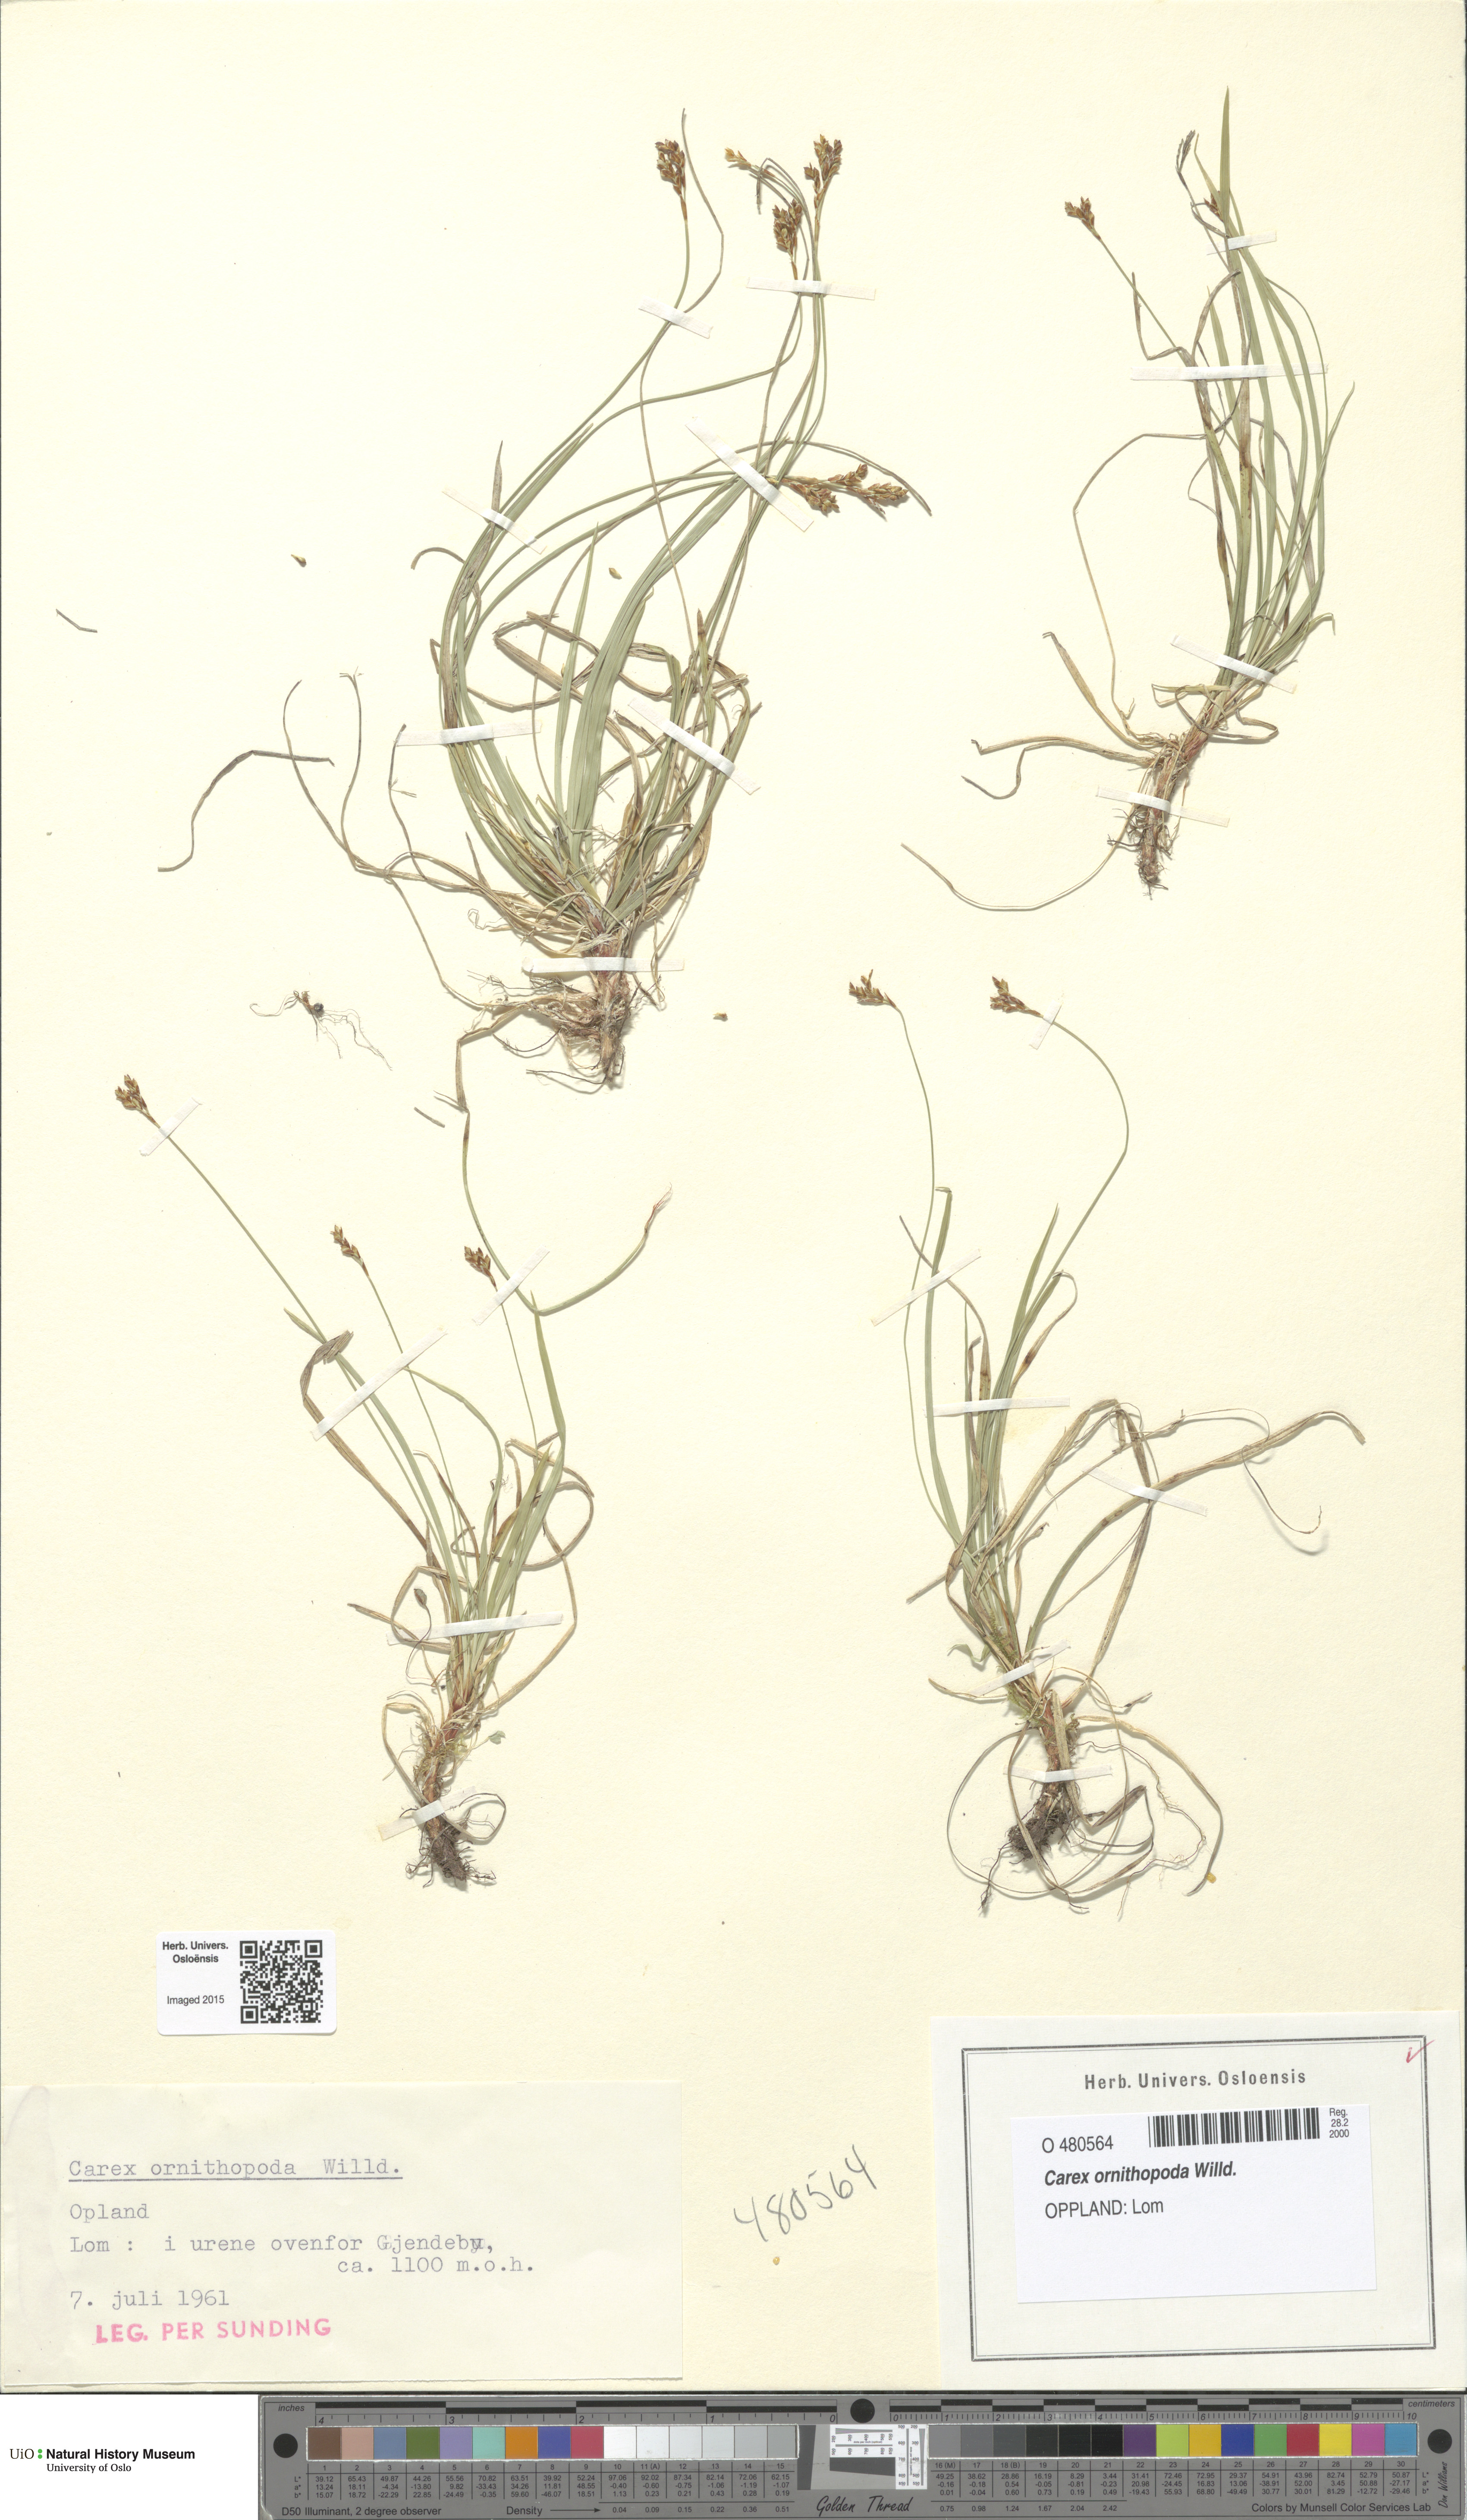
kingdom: Plantae
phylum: Tracheophyta
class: Liliopsida
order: Poales
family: Cyperaceae
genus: Carex
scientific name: Carex ornithopoda
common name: Bird's-foot sedge
